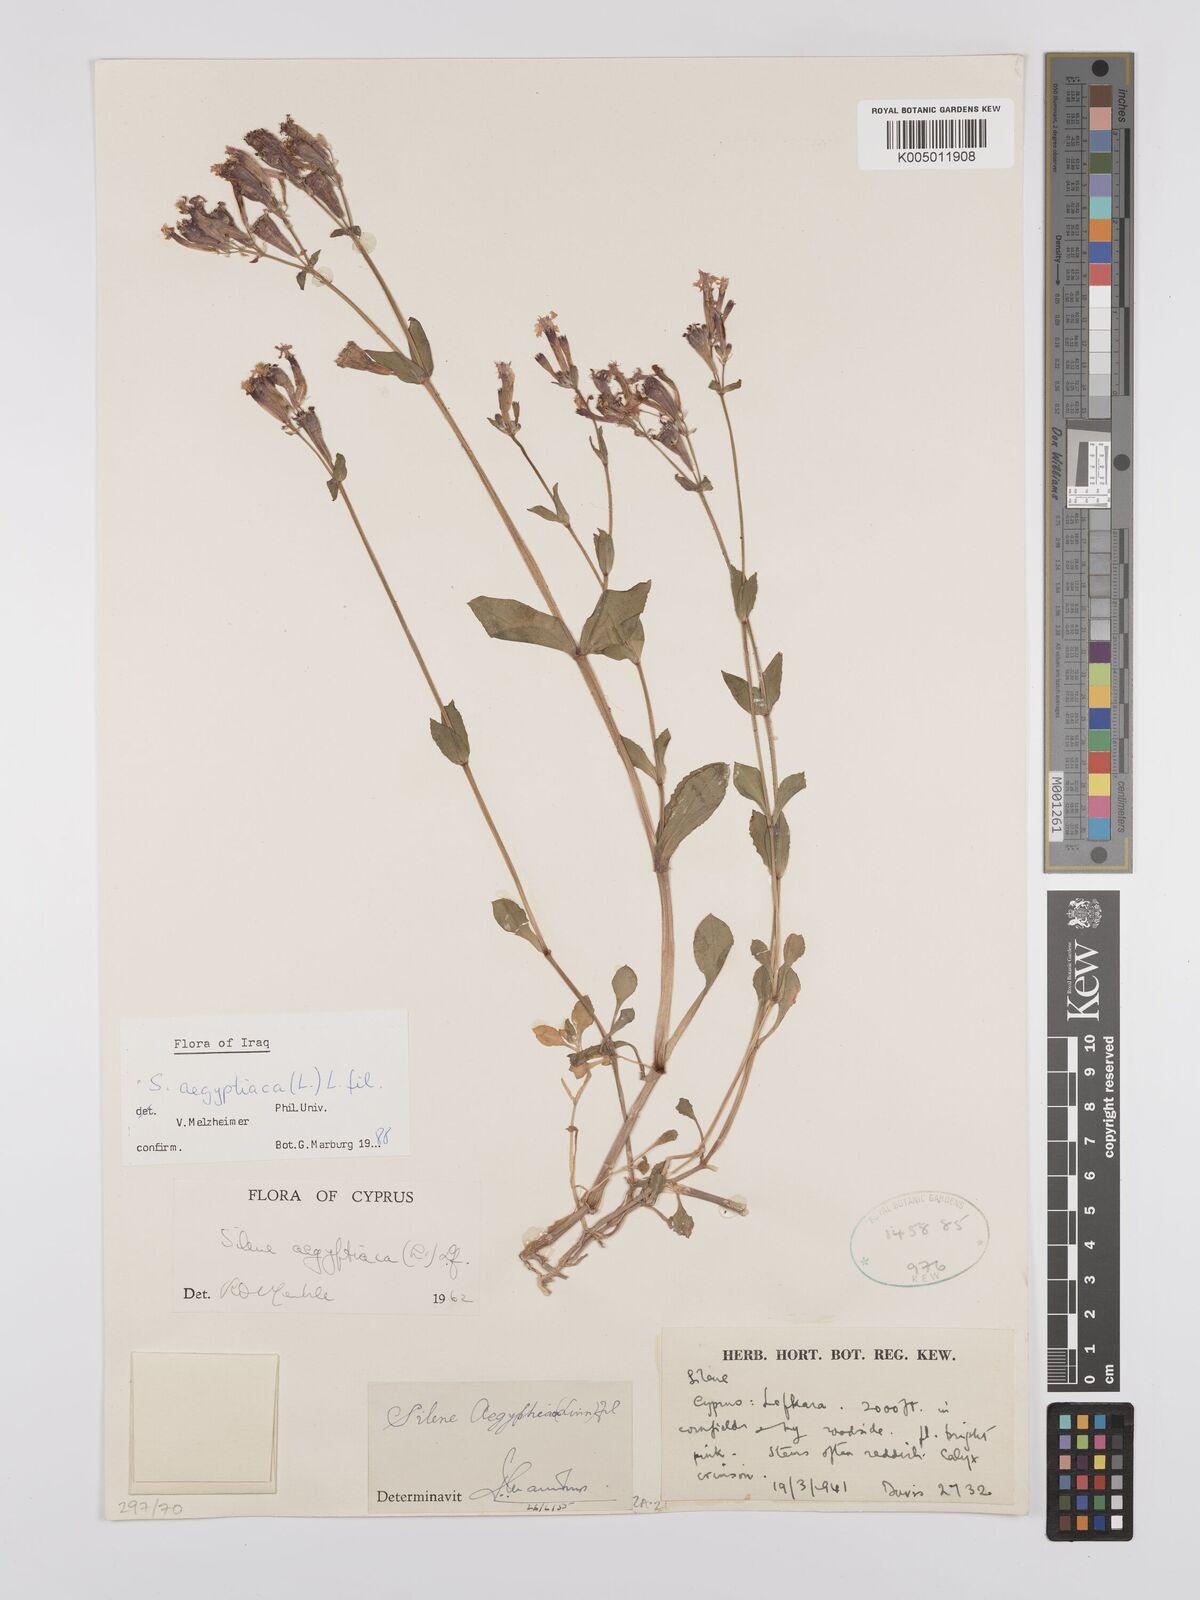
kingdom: Plantae
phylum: Tracheophyta
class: Magnoliopsida
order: Caryophyllales
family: Caryophyllaceae
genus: Silene
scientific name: Silene aegyptiaca
